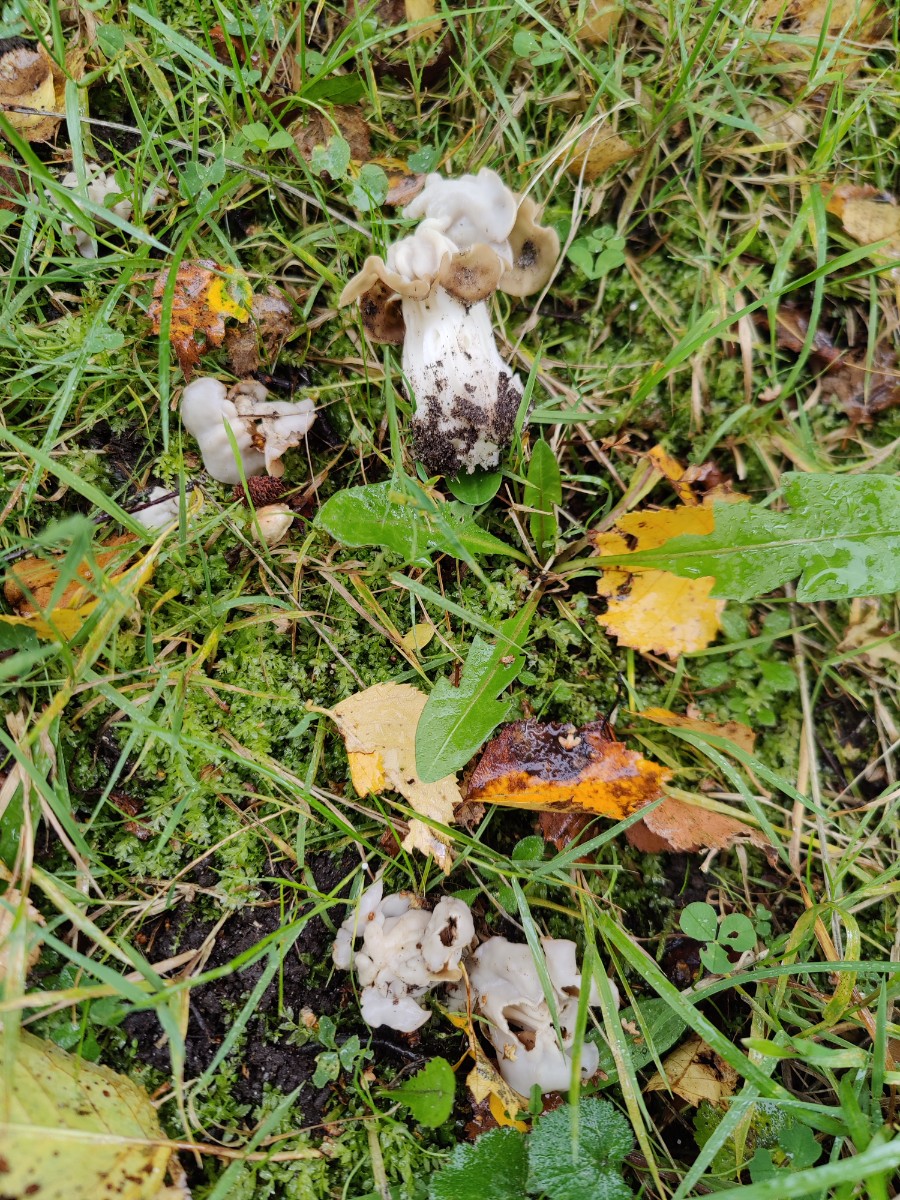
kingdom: Fungi
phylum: Ascomycota
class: Pezizomycetes
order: Pezizales
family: Helvellaceae
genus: Helvella
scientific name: Helvella crispa
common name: kruset foldhat
